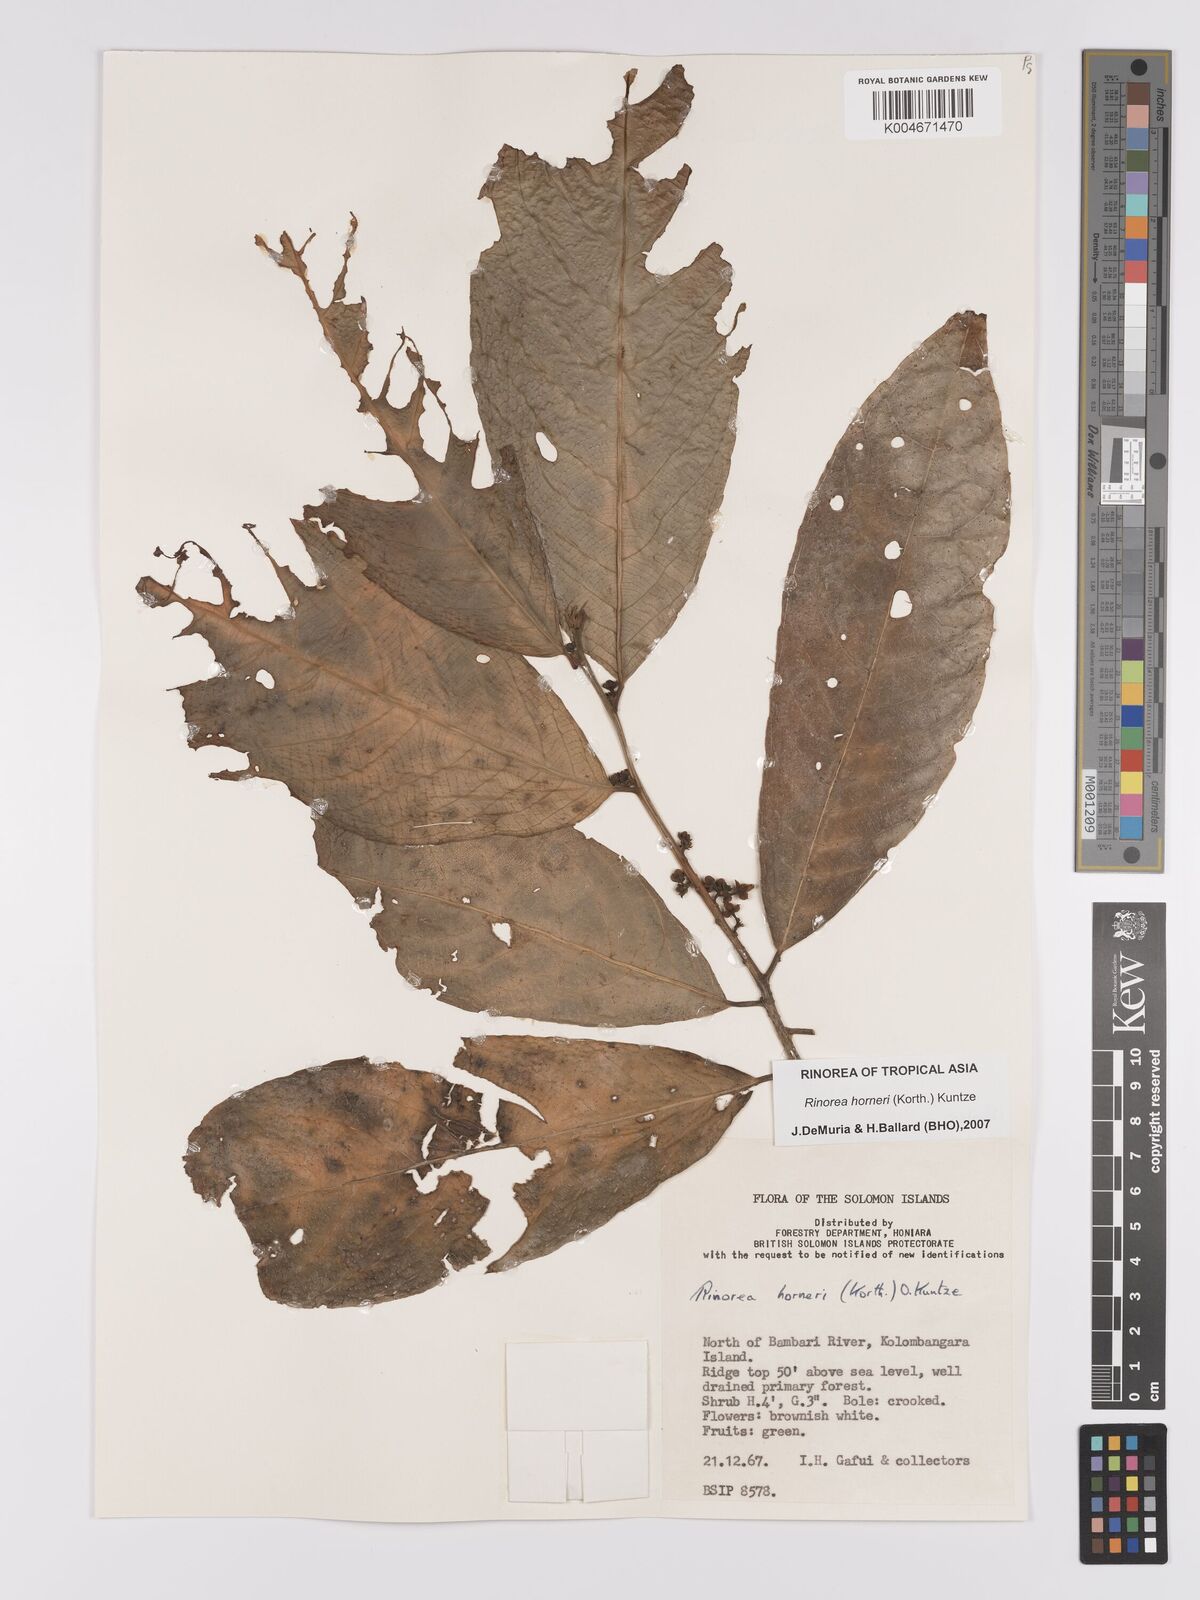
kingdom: Plantae
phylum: Tracheophyta
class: Magnoliopsida
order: Malpighiales
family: Violaceae
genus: Rinorea
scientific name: Rinorea horneri
